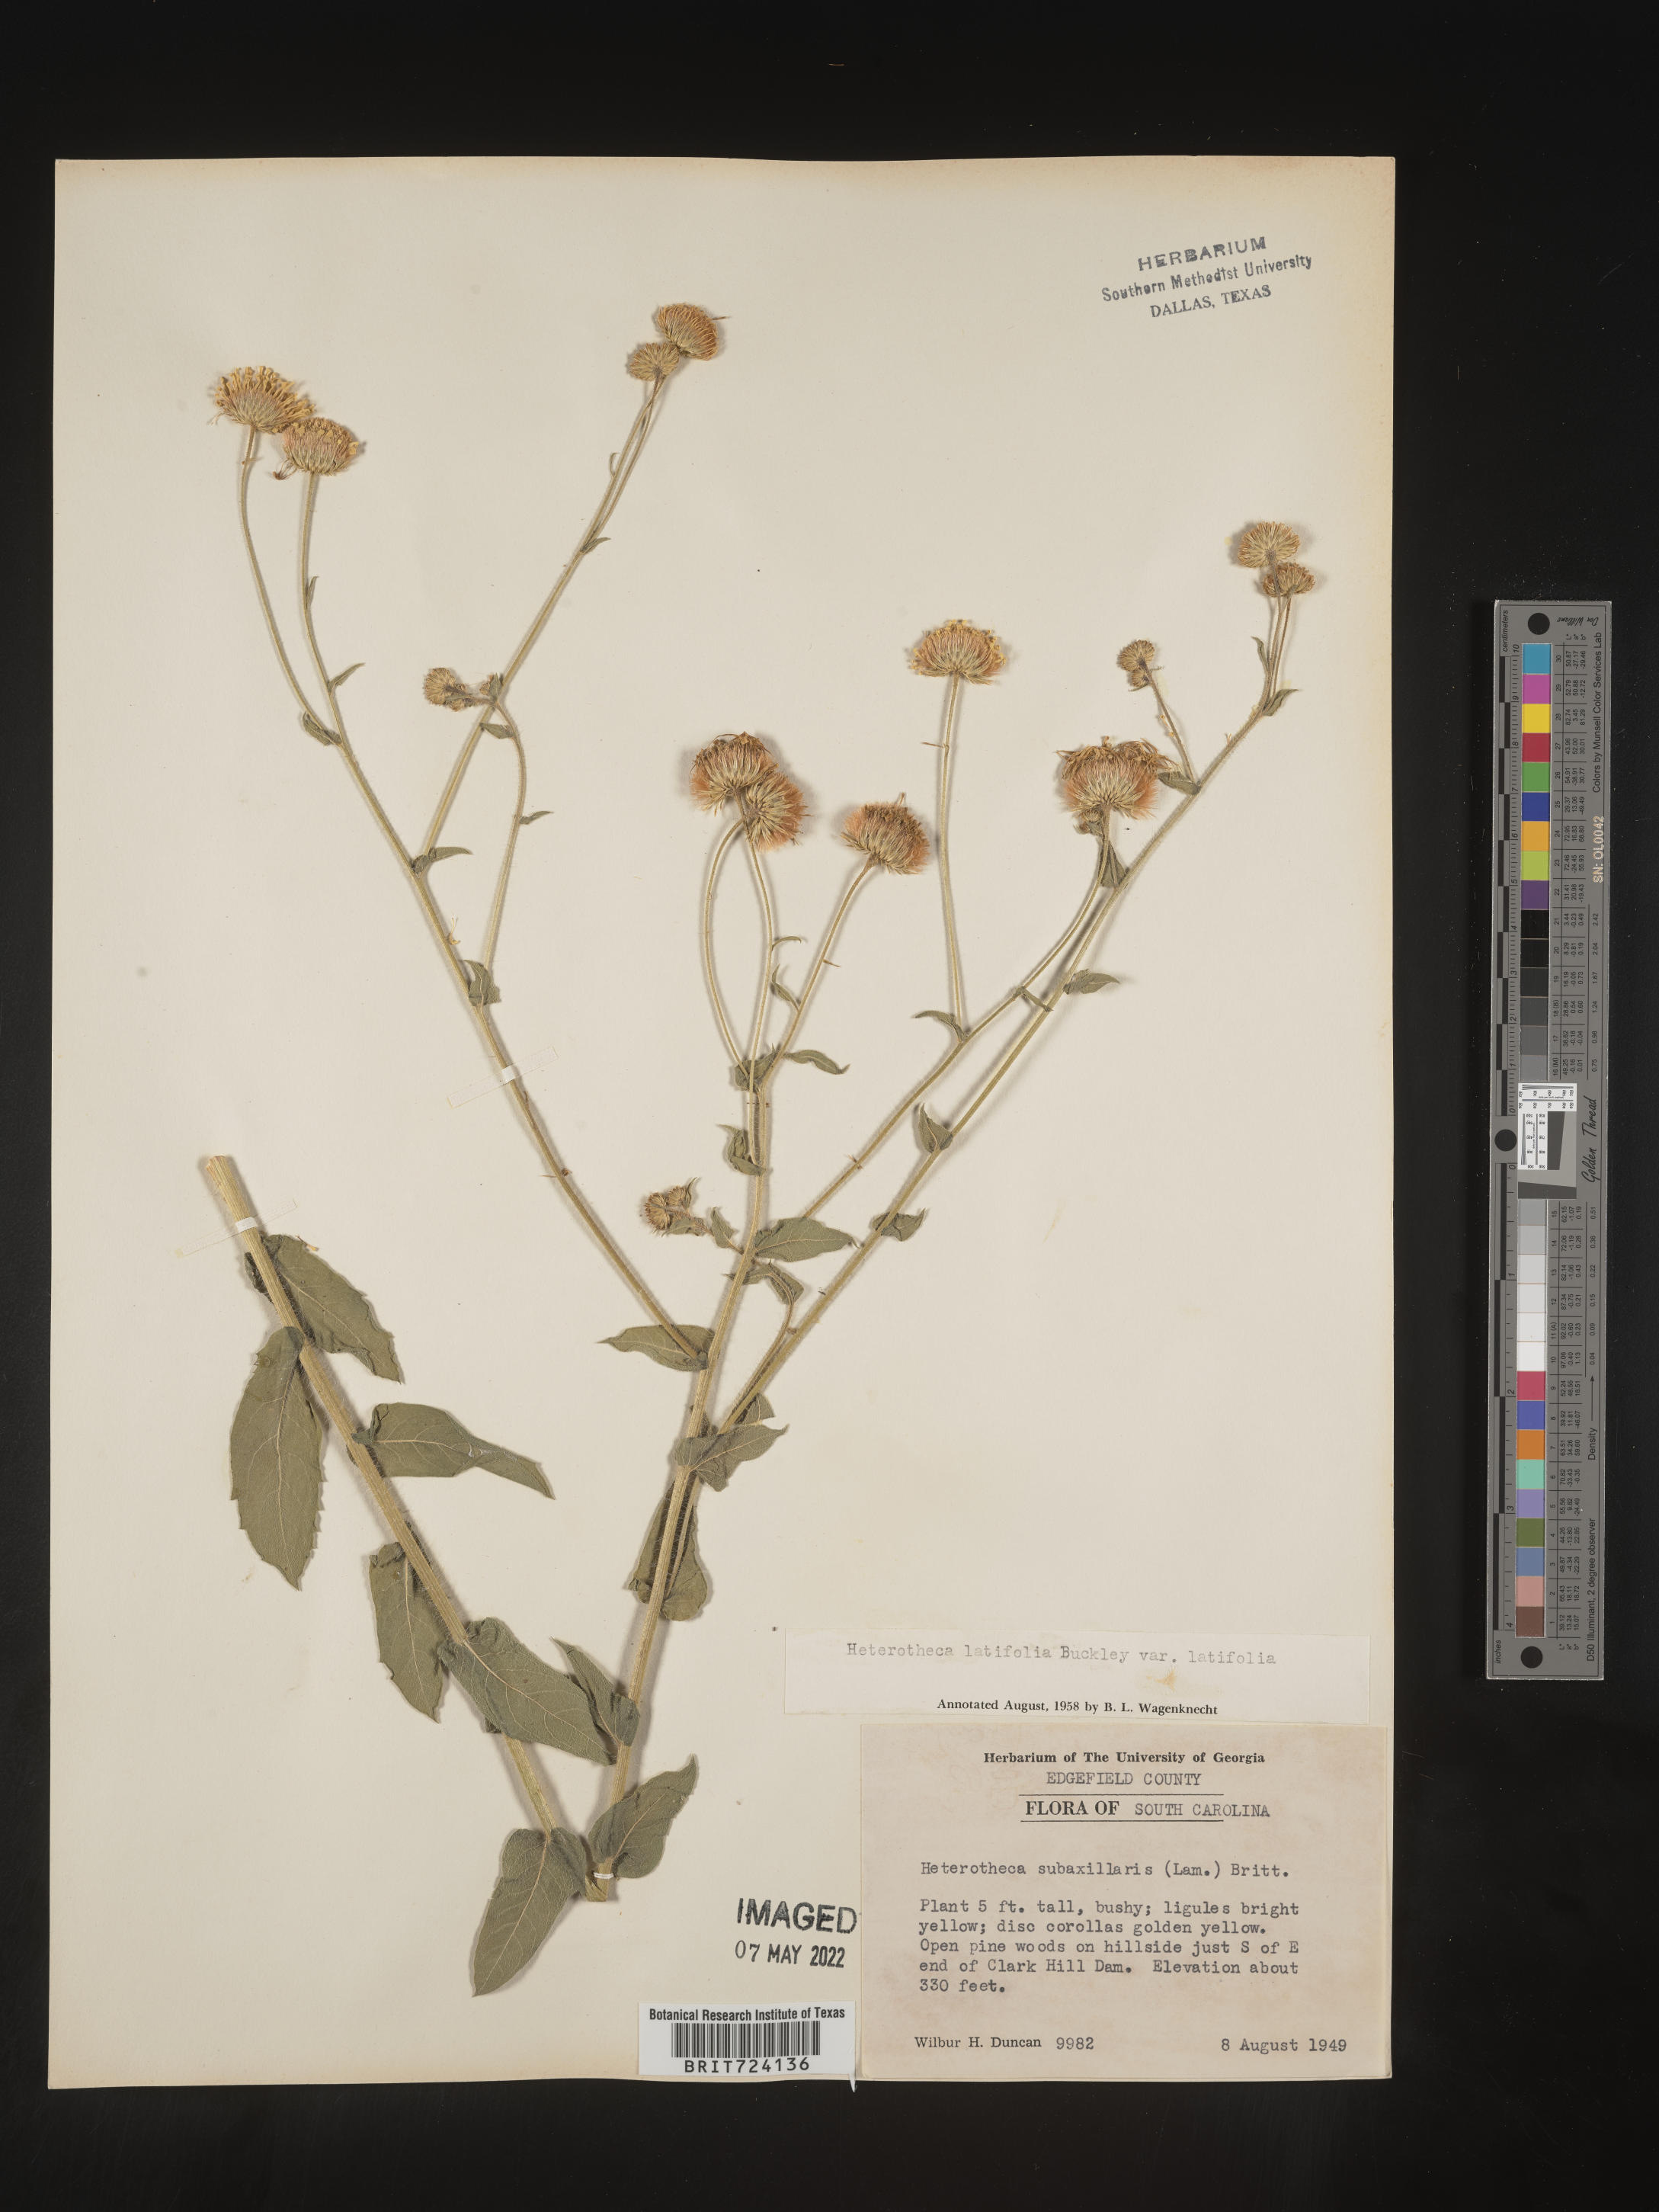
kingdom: Plantae
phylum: Tracheophyta
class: Magnoliopsida
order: Asterales
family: Asteraceae
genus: Heterotheca
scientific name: Heterotheca subaxillaris
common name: Camphorweed
